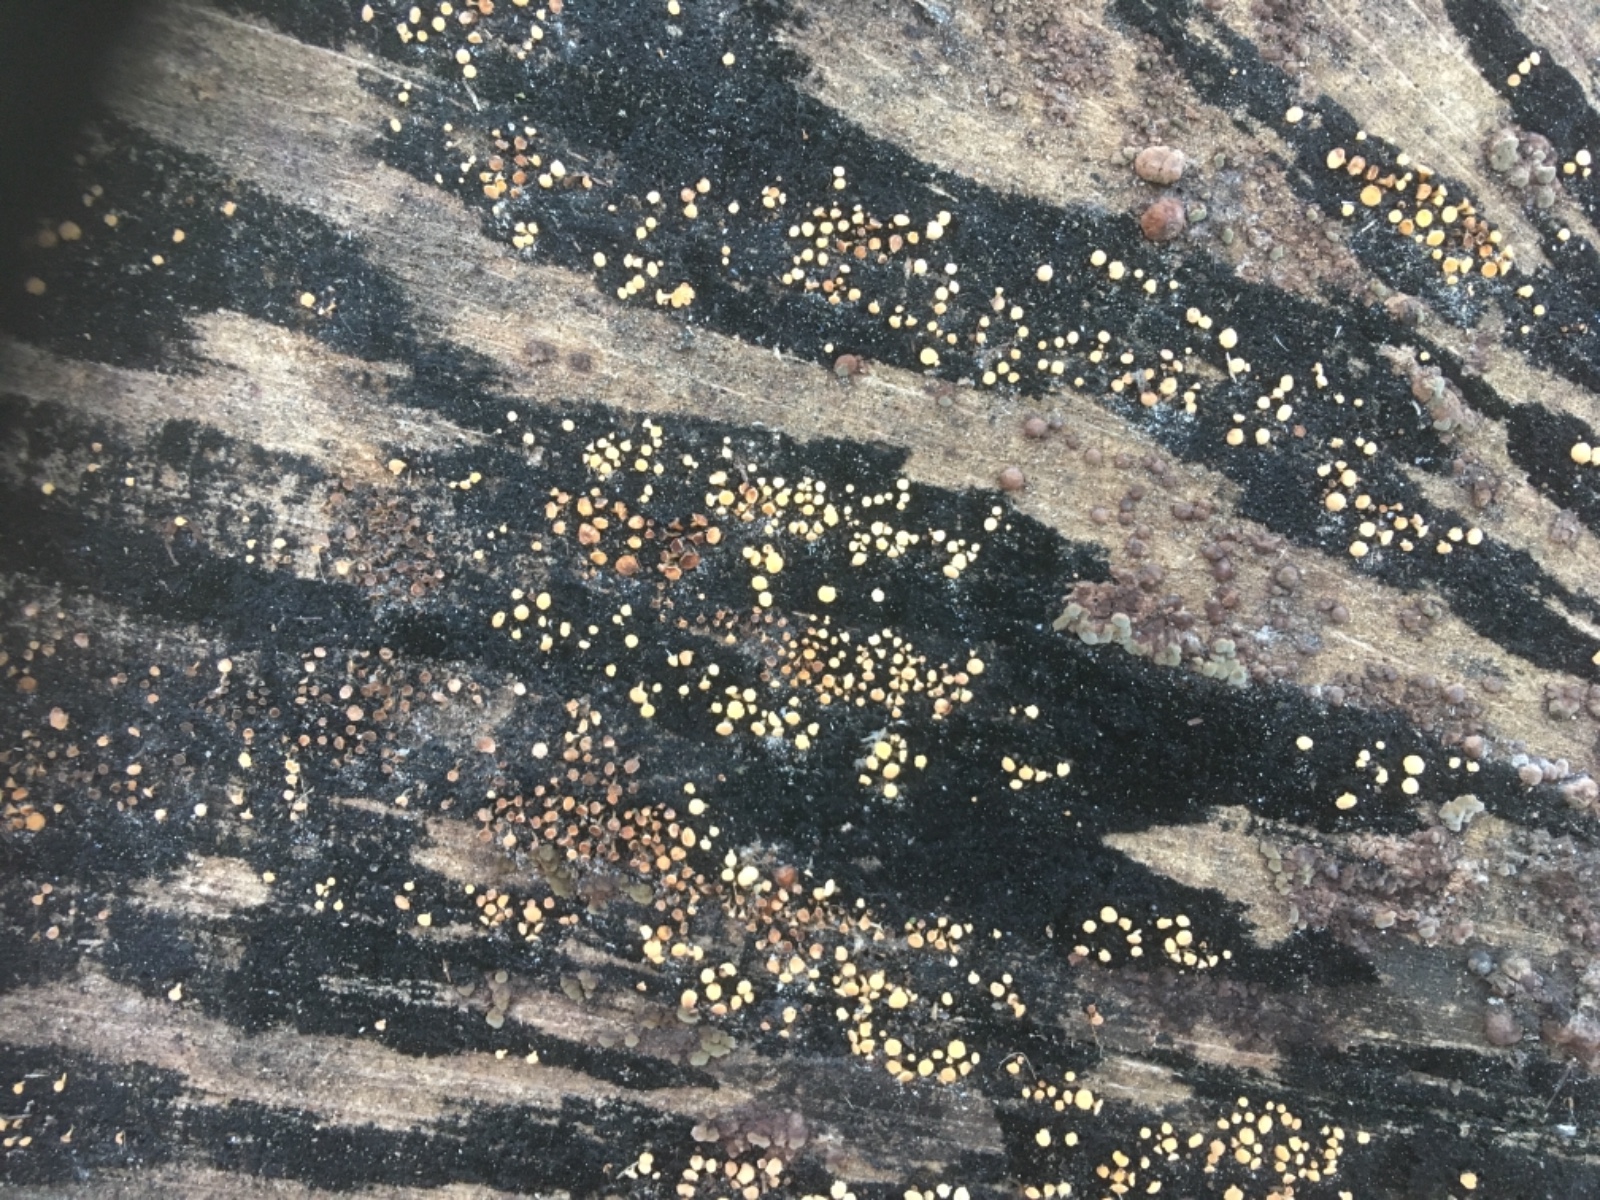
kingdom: Fungi
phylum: Ascomycota
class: Leotiomycetes
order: Helotiales
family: Helotiaceae
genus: Bispora
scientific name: Bispora pallescens
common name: måtte-snitskive
